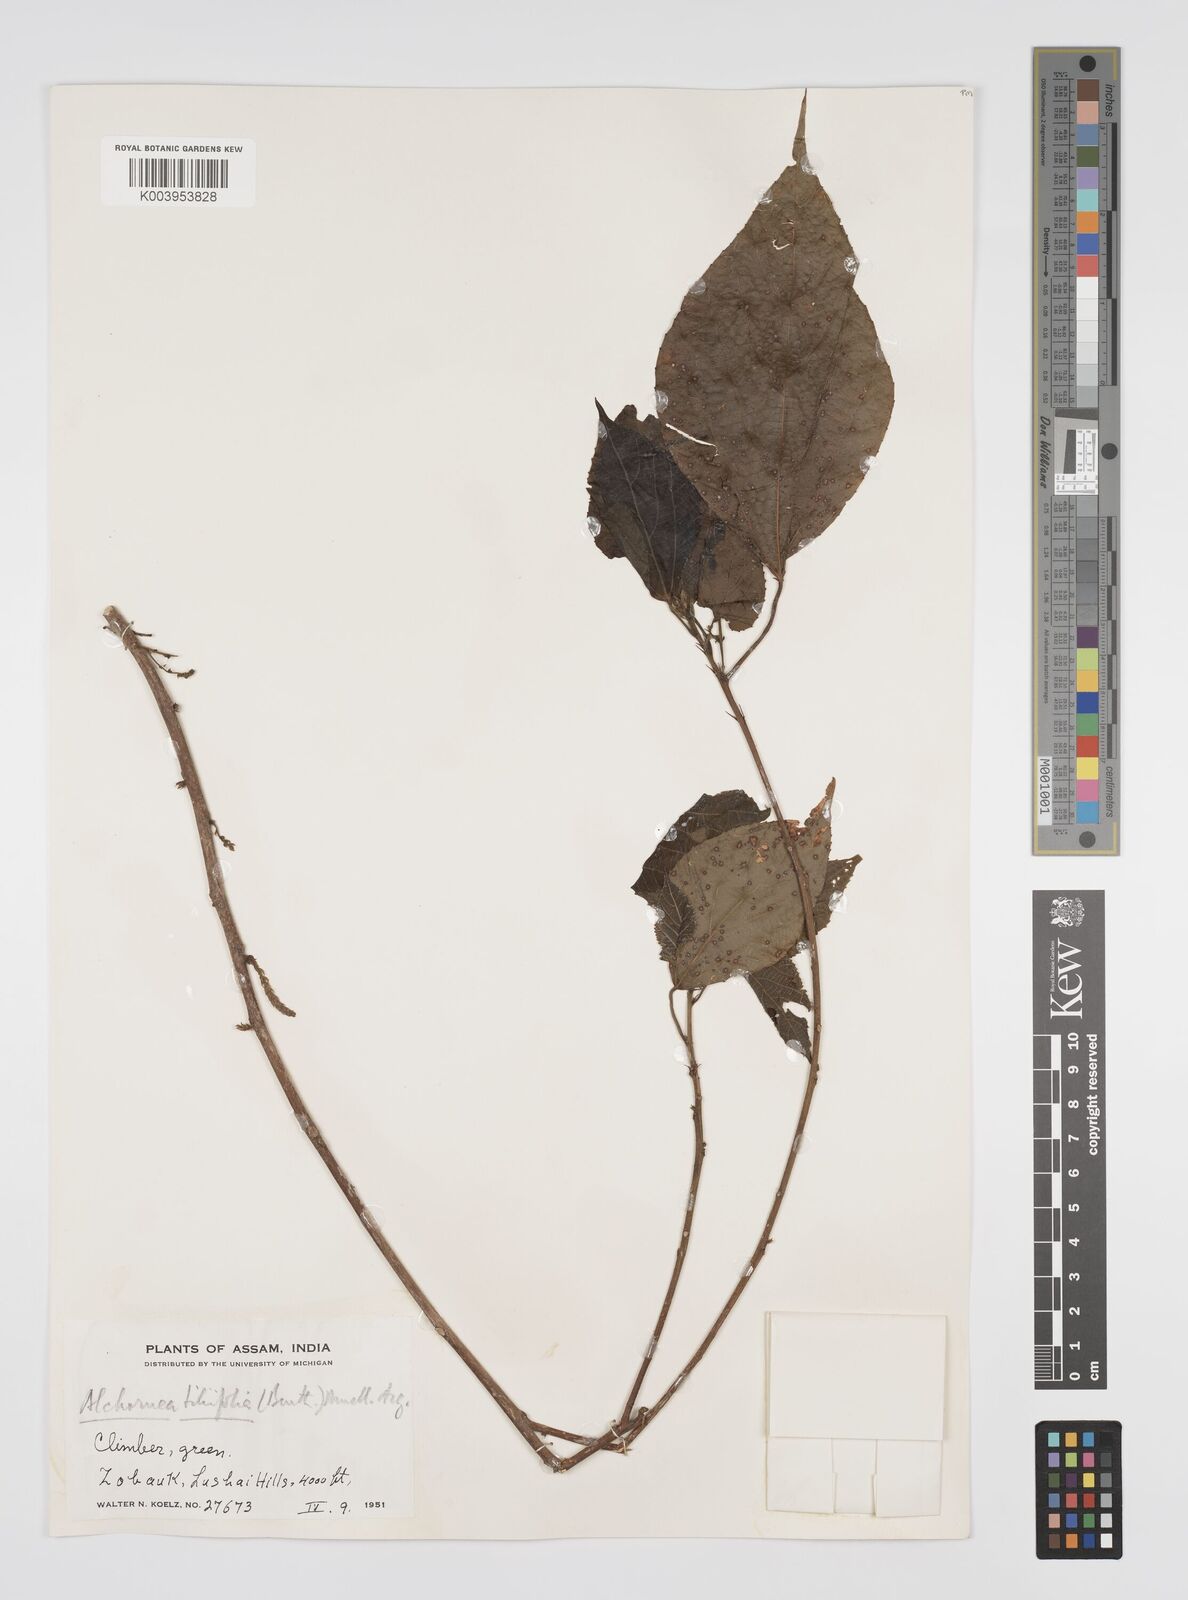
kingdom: Plantae
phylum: Tracheophyta
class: Magnoliopsida
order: Malpighiales
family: Euphorbiaceae
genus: Alchornea
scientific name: Alchornea tiliifolia
